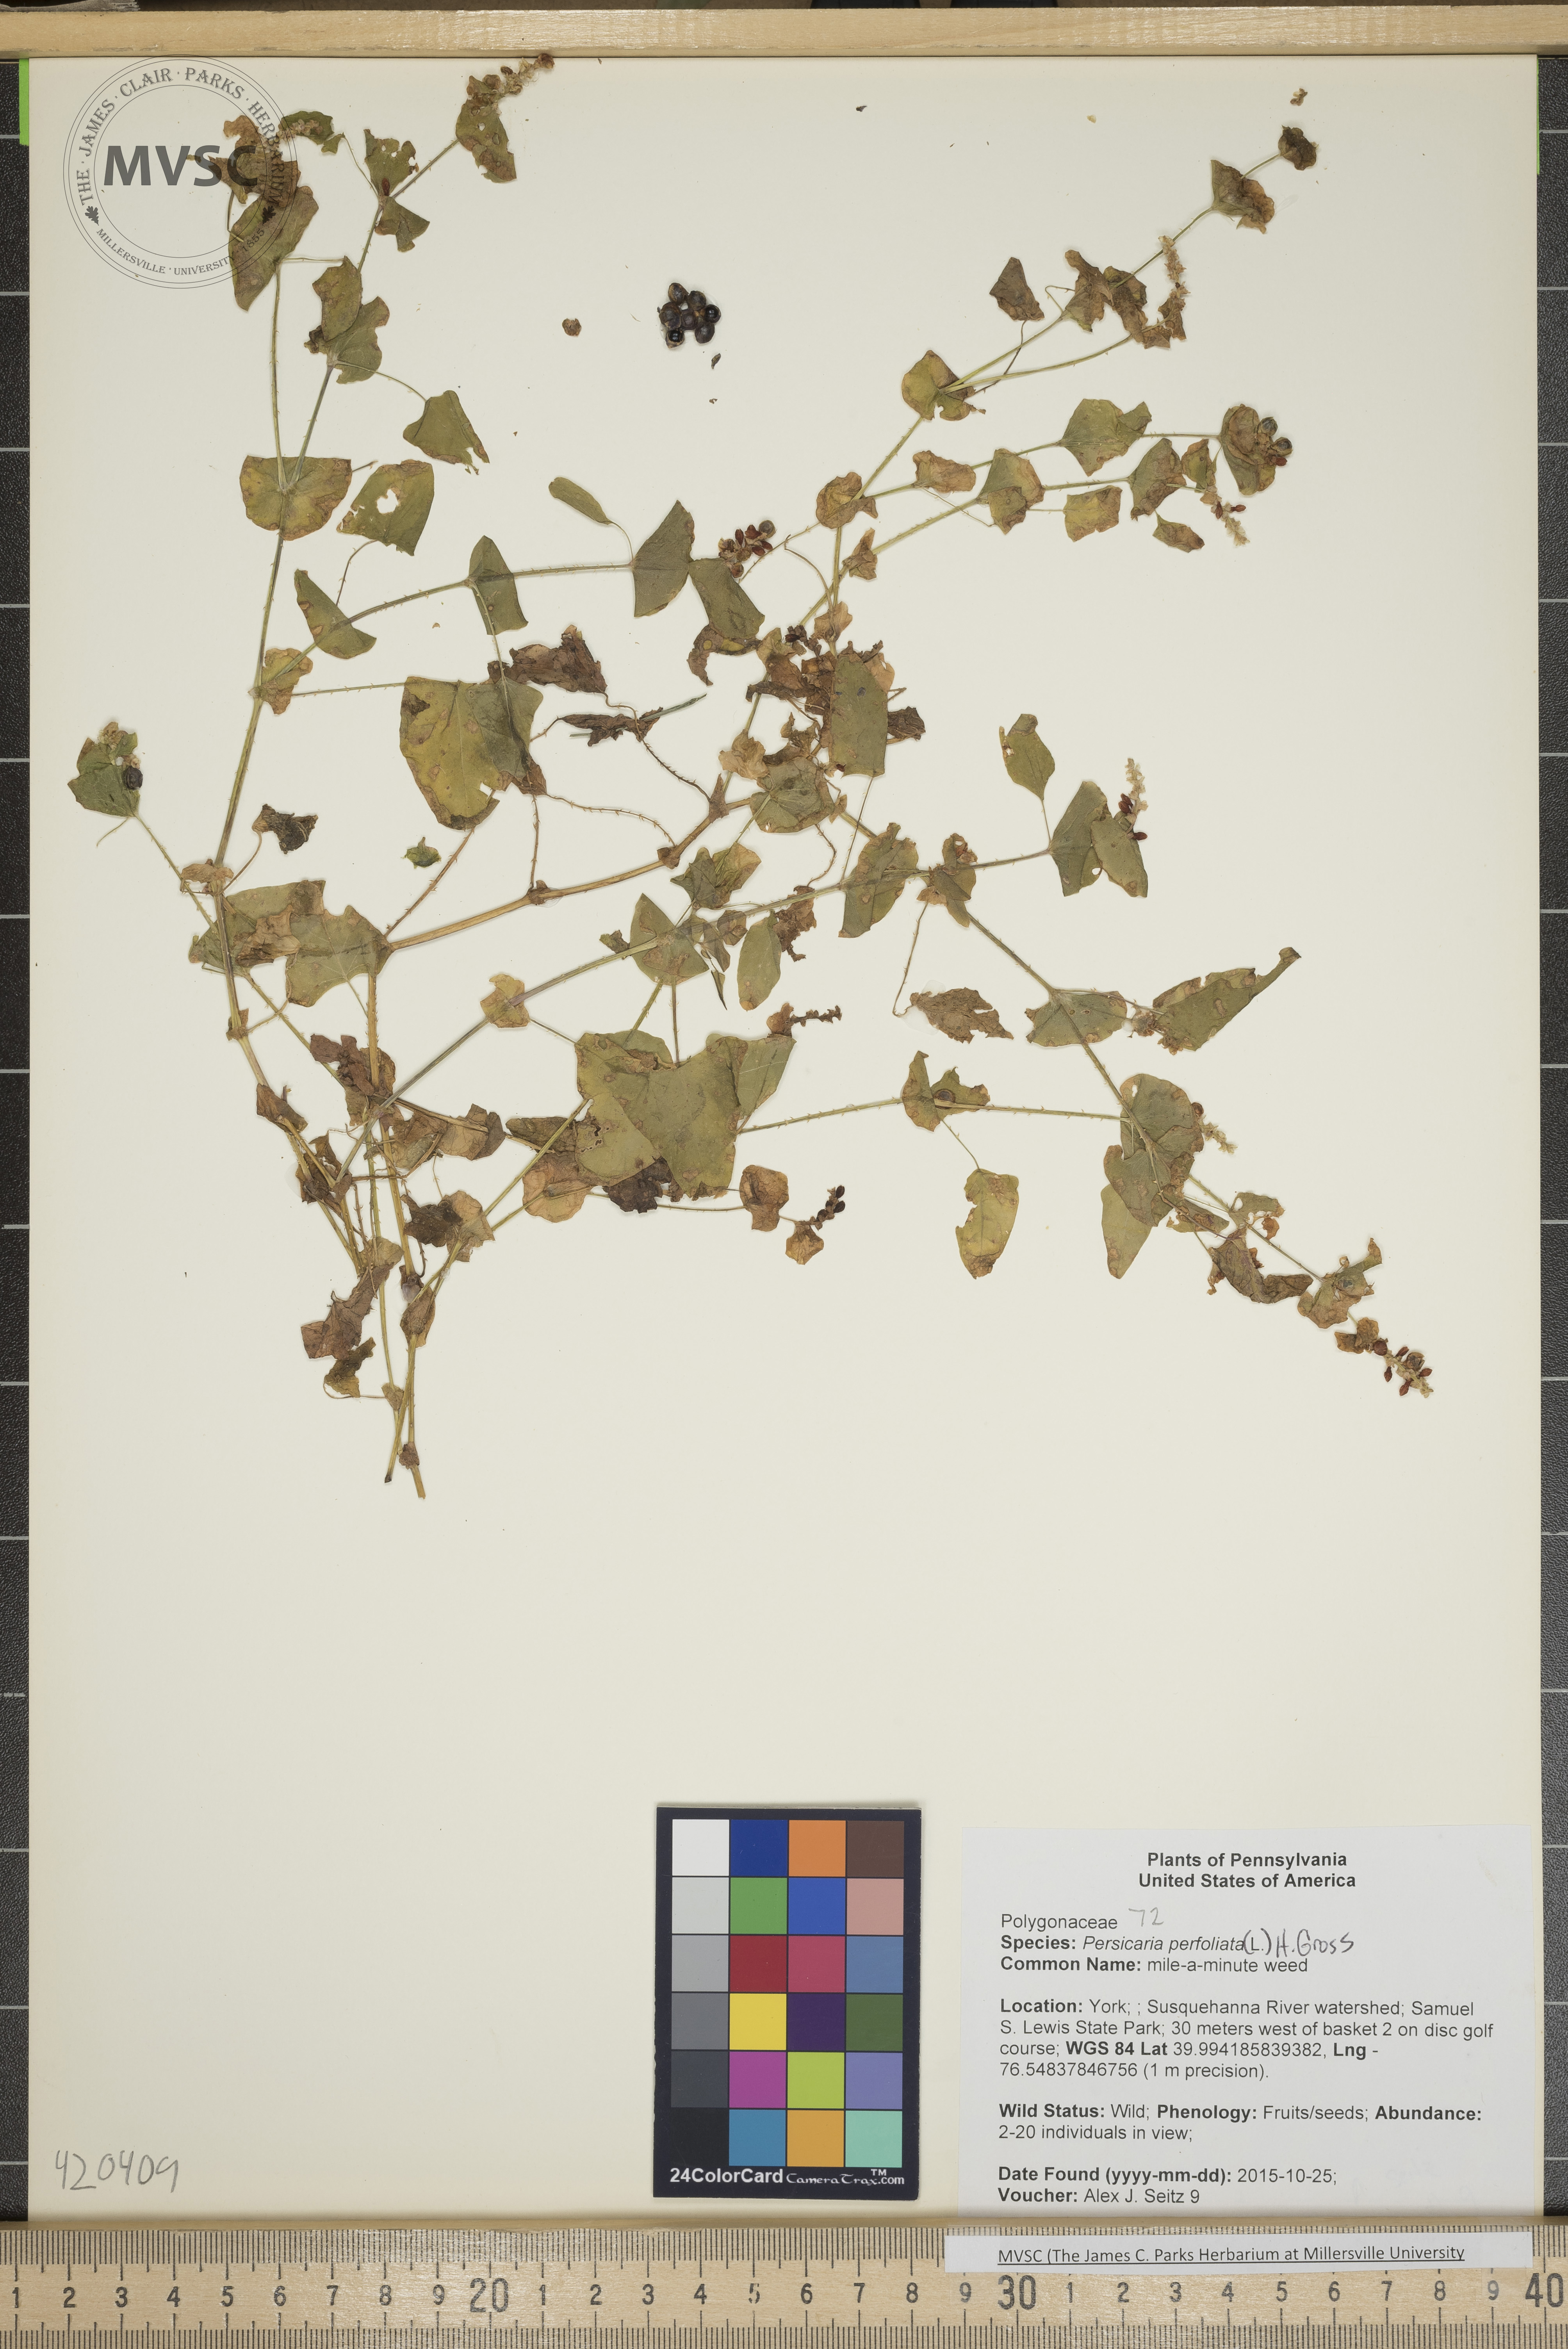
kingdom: Plantae
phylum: Tracheophyta
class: Magnoliopsida
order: Caryophyllales
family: Polygonaceae
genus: Persicaria
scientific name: Persicaria perfoliata
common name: mile-a-minute weed
